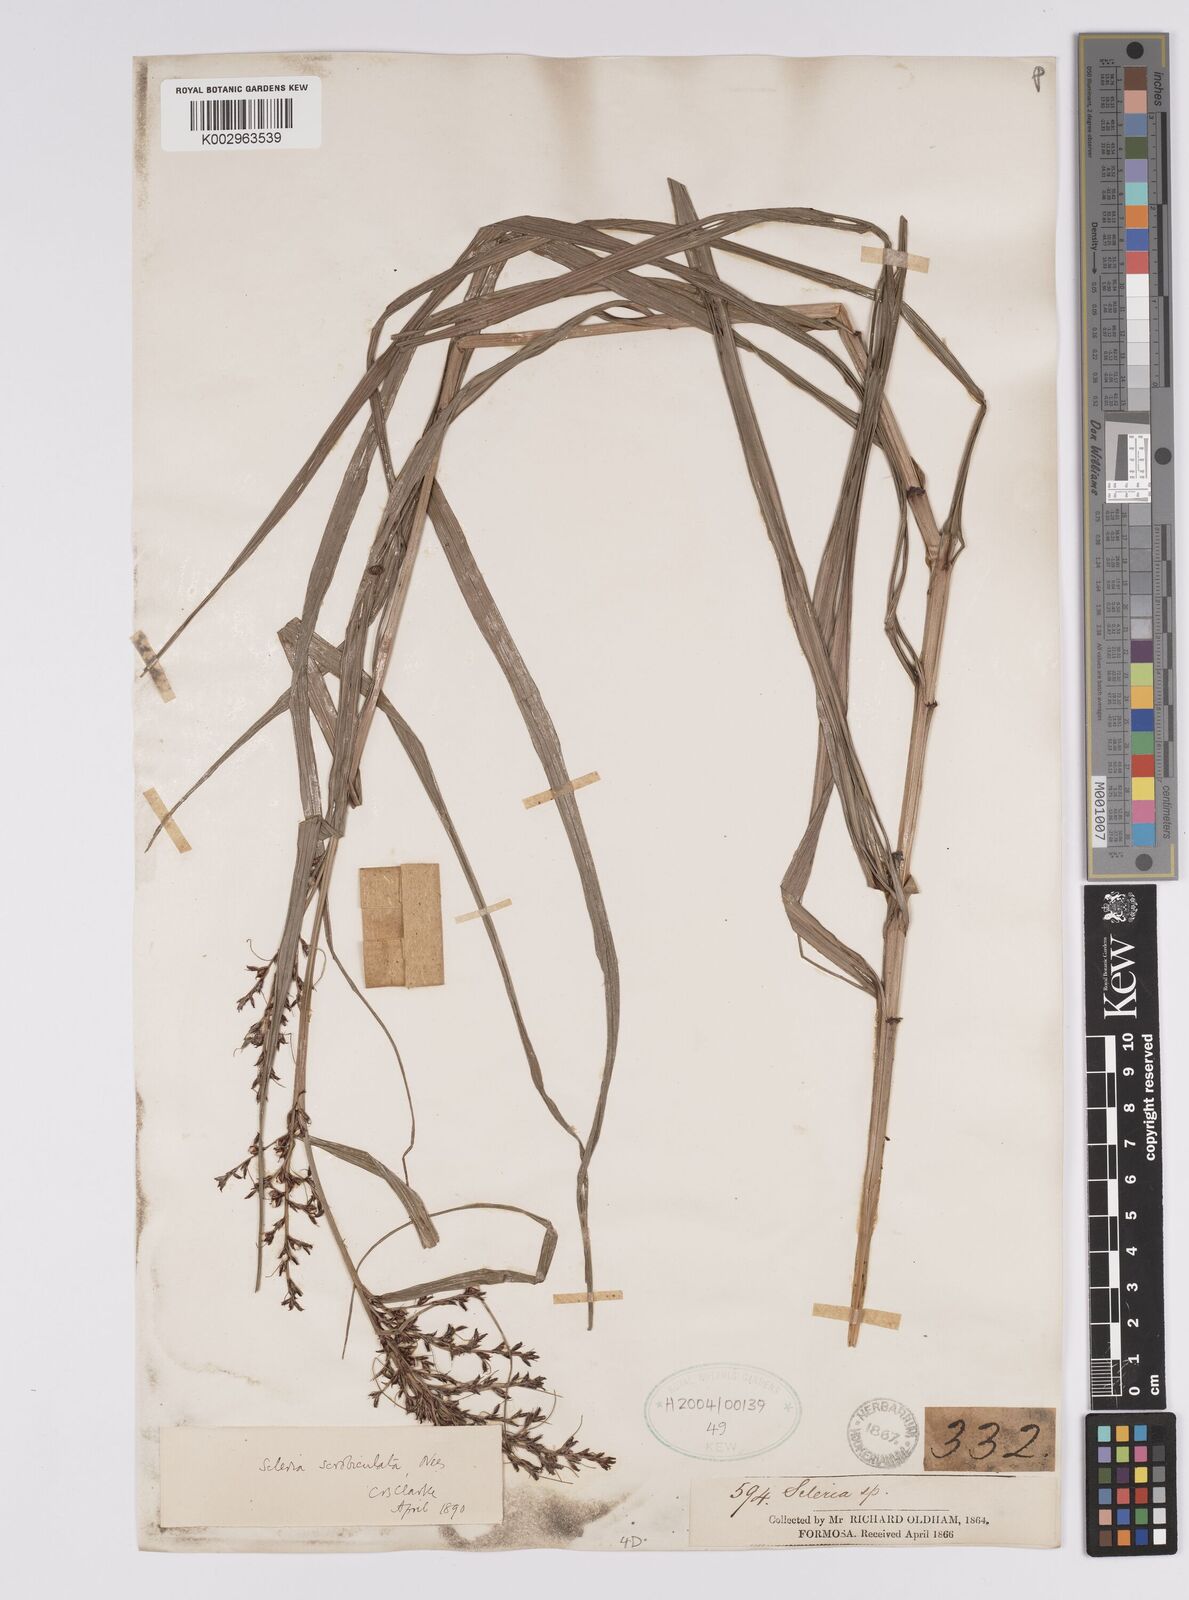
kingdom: Plantae
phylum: Tracheophyta
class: Liliopsida
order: Poales
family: Cyperaceae
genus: Scleria
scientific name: Scleria scrobiculata
